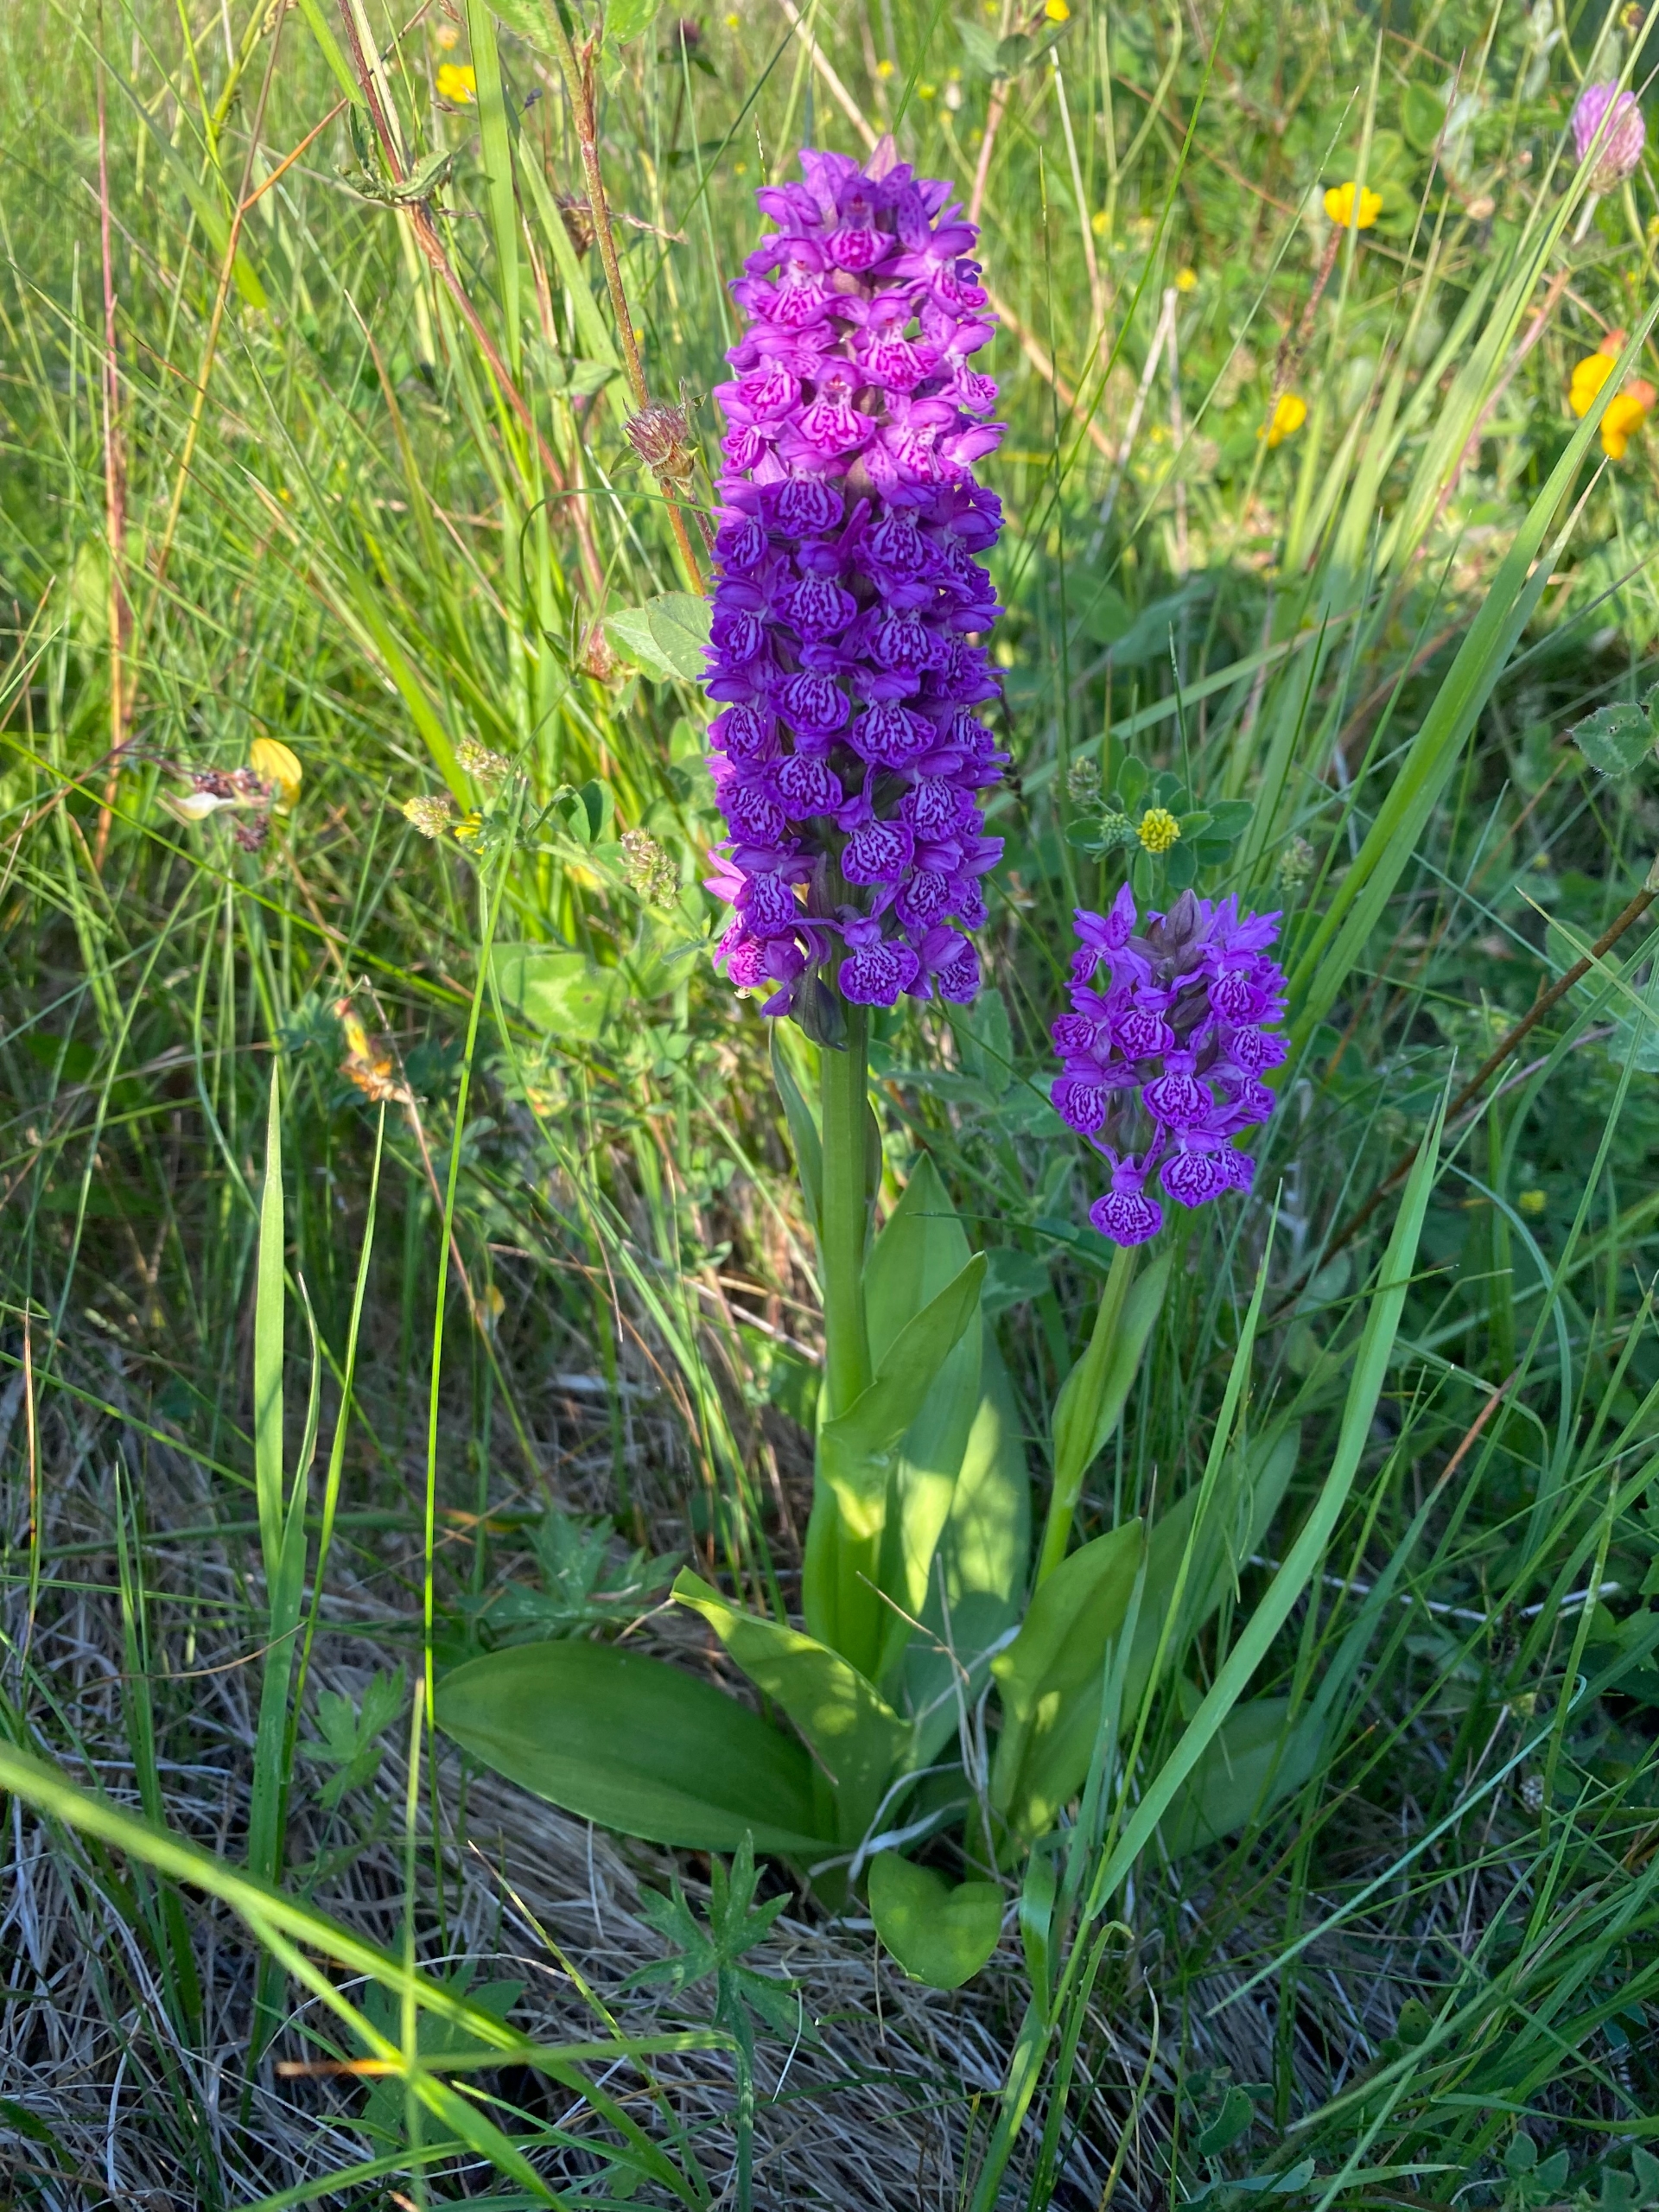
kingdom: Plantae
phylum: Tracheophyta
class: Liliopsida
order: Asparagales
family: Orchidaceae
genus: Dactylorhiza
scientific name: Dactylorhiza majalis
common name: Purpur-gøgeurt
